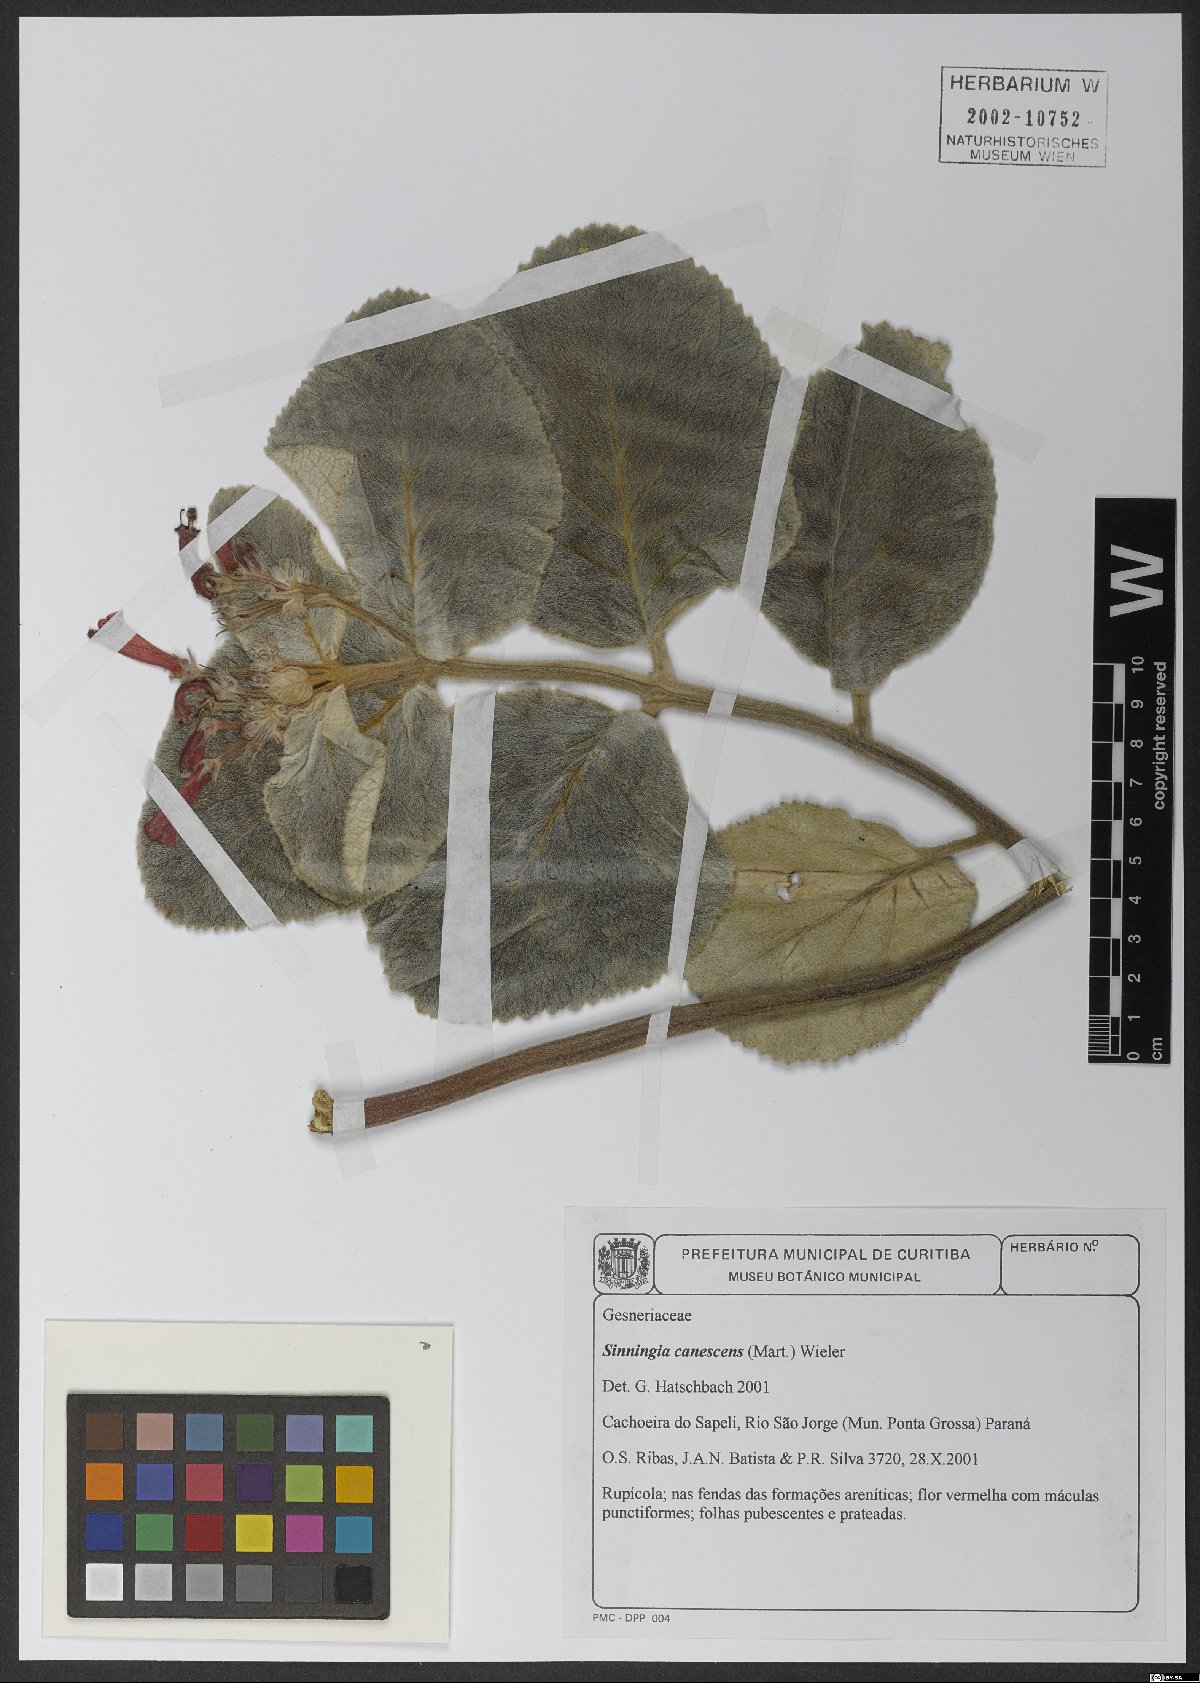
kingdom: Plantae
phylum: Tracheophyta
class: Magnoliopsida
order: Lamiales
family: Gesneriaceae
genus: Sinningia
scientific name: Sinningia canescens
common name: Queen-of-the-abyss
